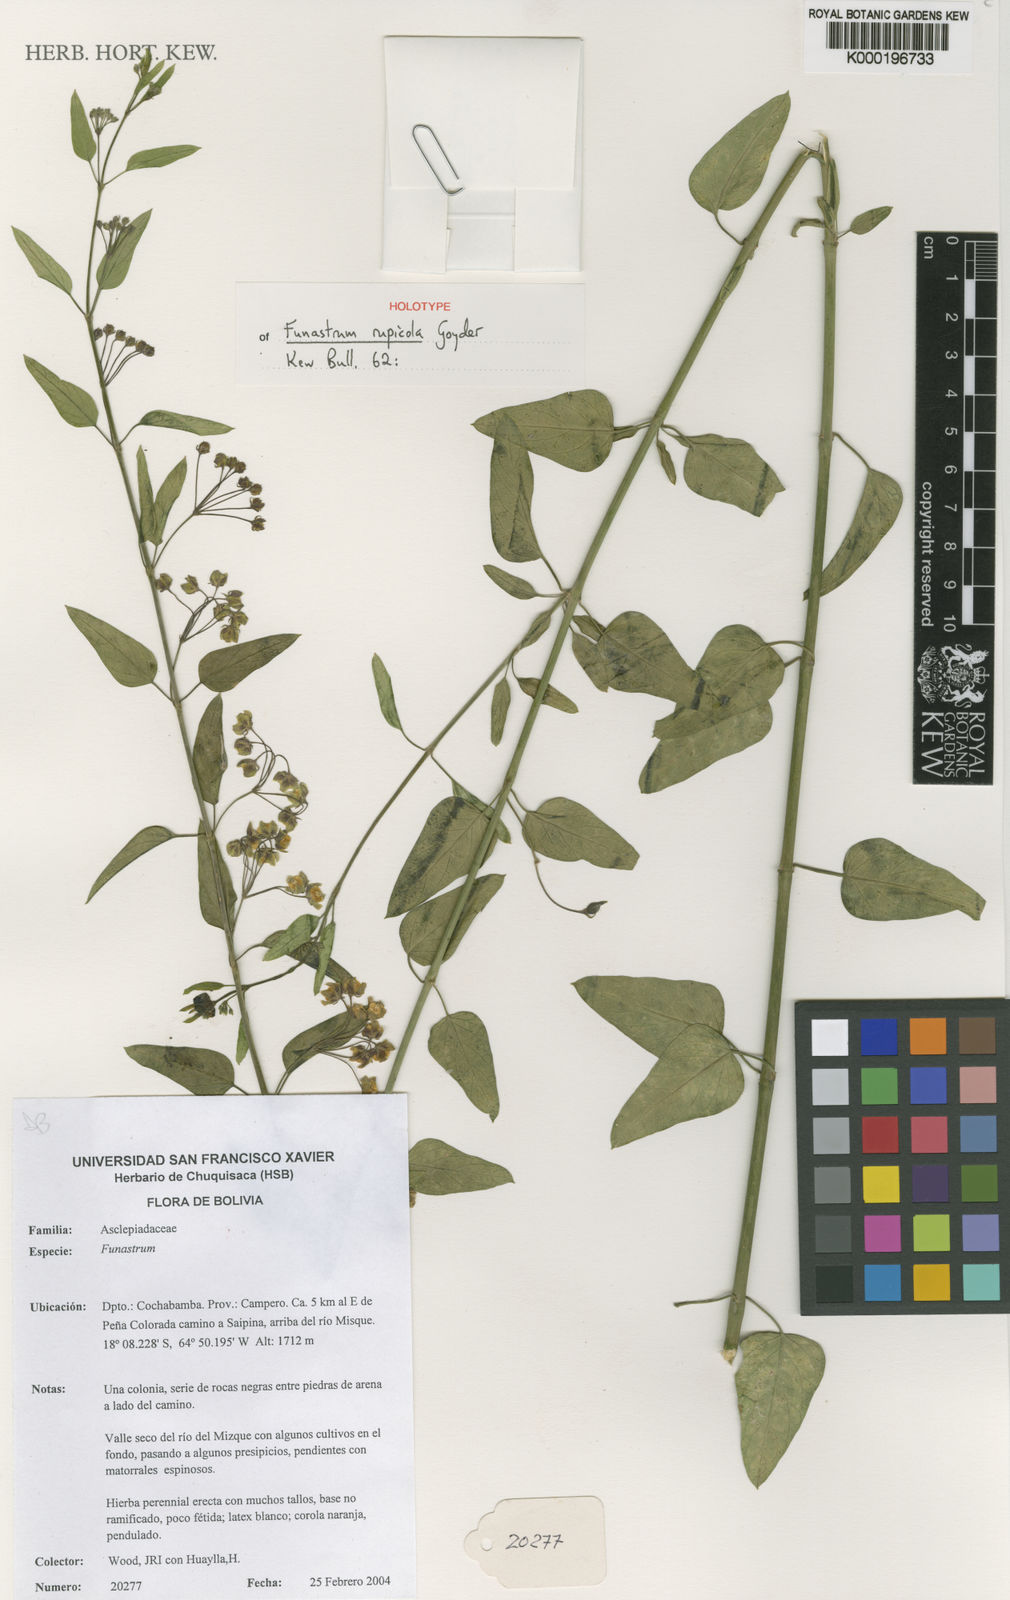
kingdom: Plantae
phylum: Tracheophyta
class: Magnoliopsida
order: Gentianales
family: Apocynaceae
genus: Funastrum
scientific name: Funastrum rupicola
